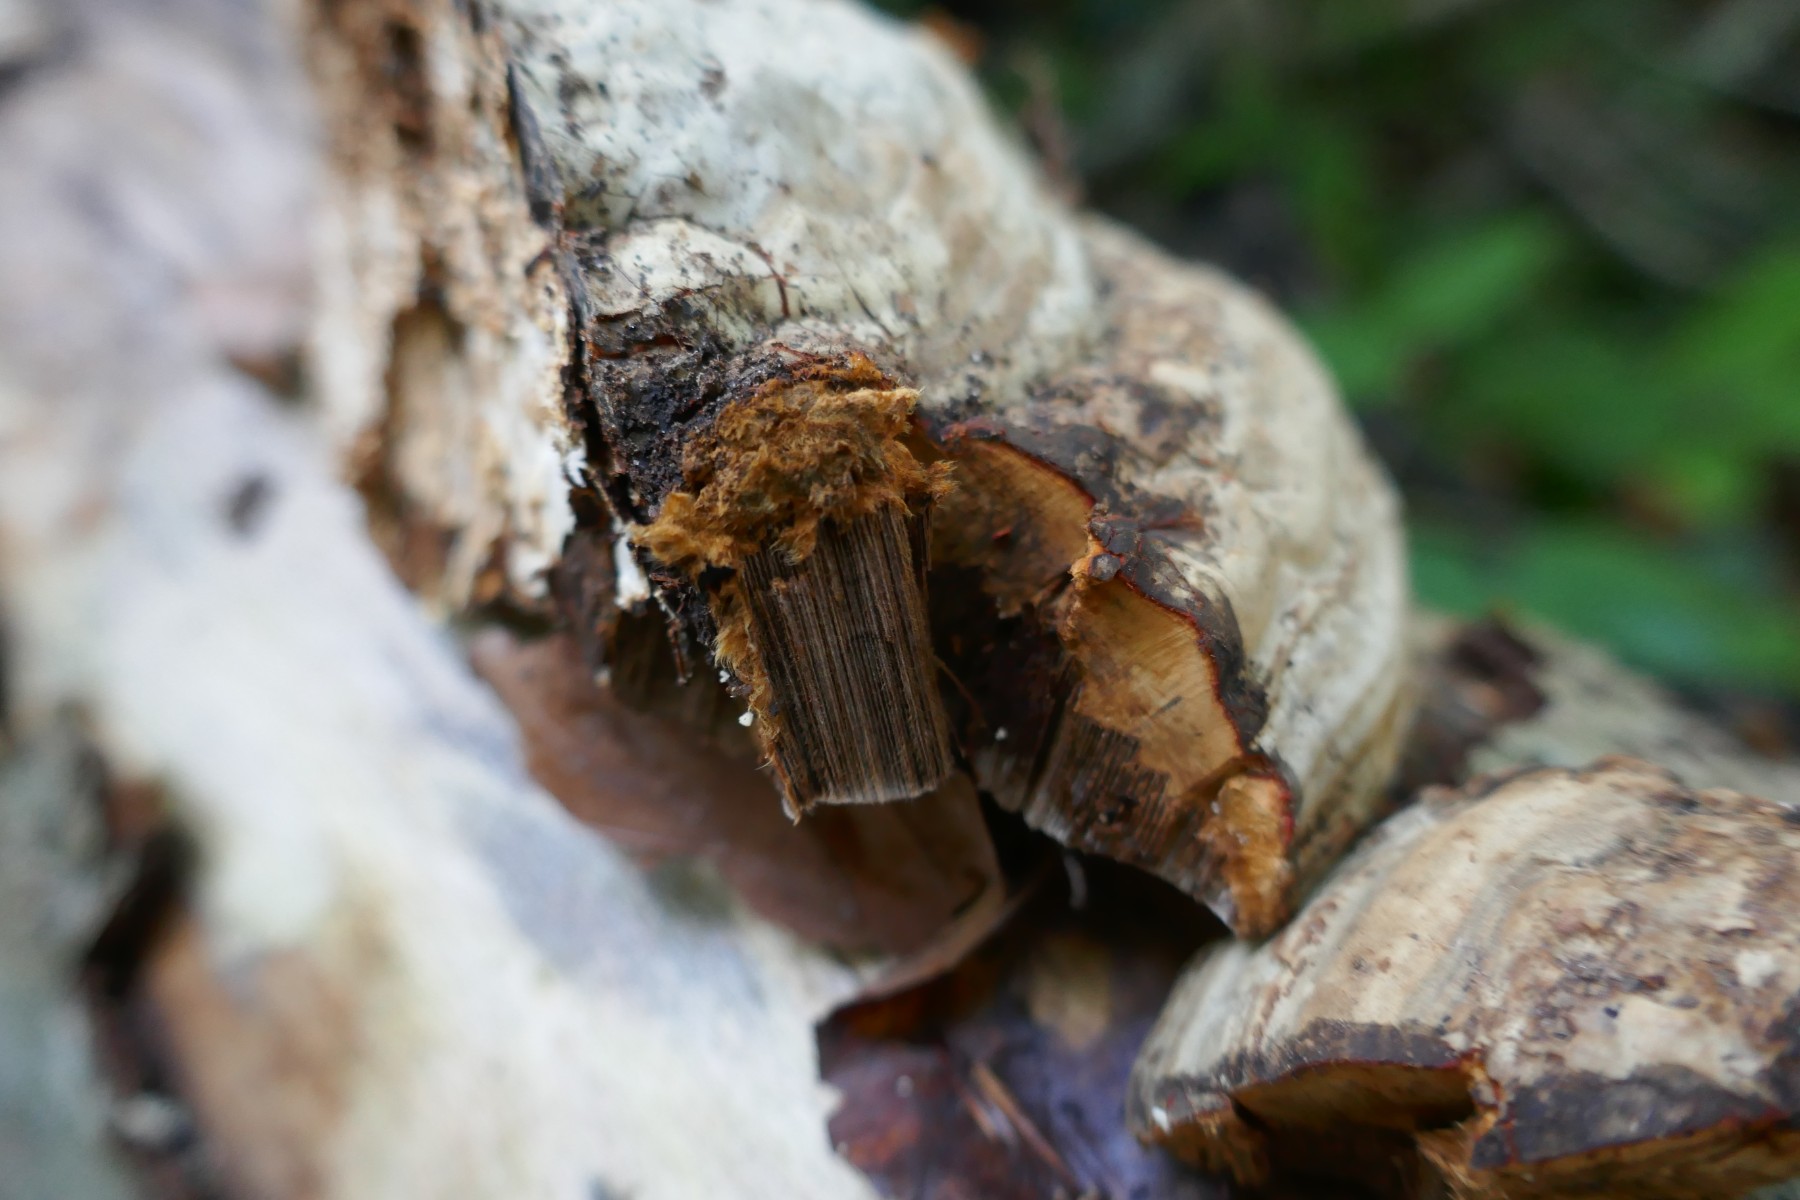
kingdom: Fungi
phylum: Basidiomycota
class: Agaricomycetes
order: Polyporales
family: Polyporaceae
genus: Fomes
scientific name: Fomes fomentarius
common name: tøndersvamp
